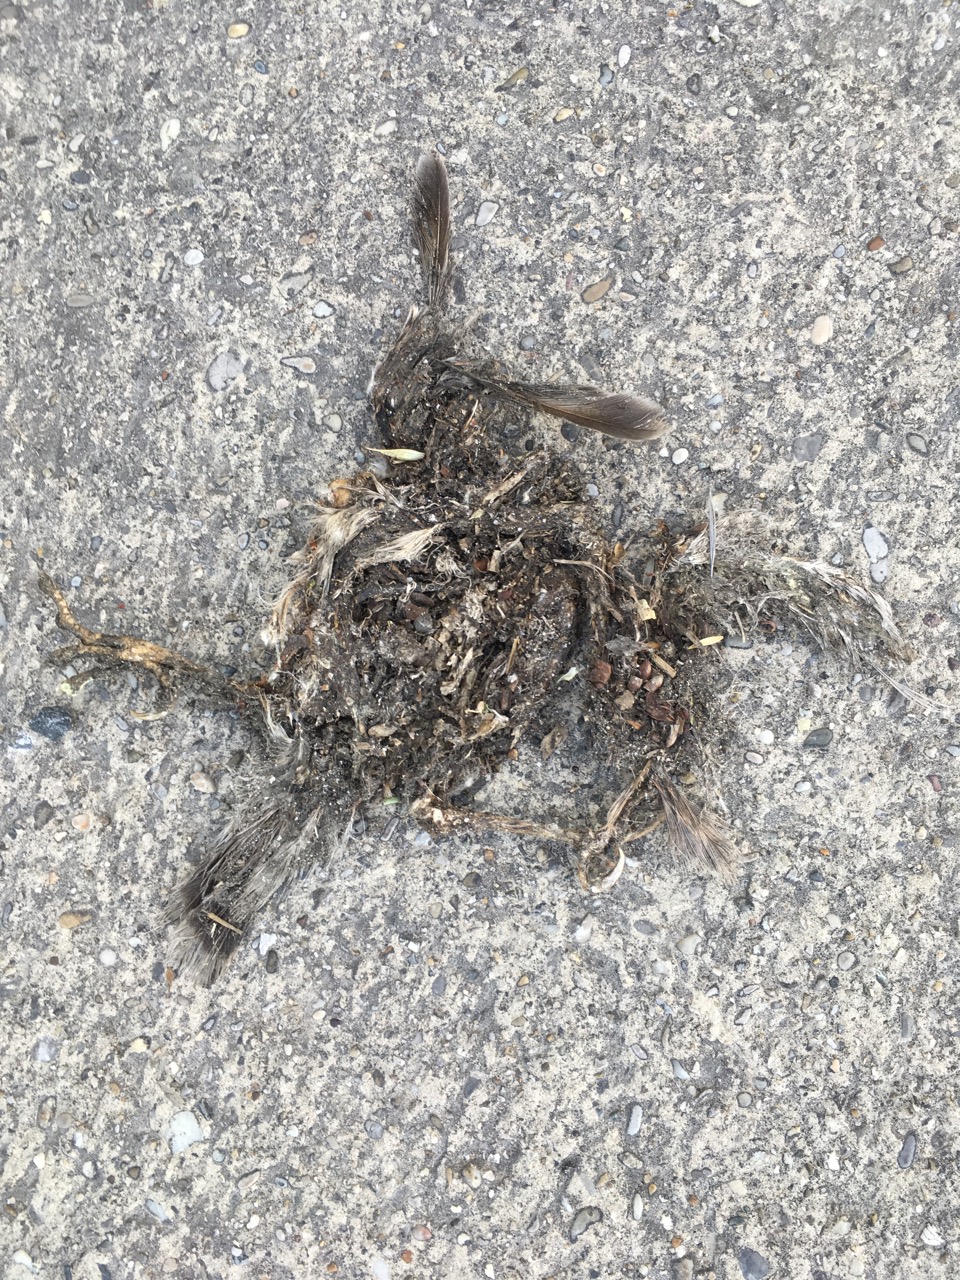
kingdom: Animalia
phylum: Chordata
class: Aves
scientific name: Aves
